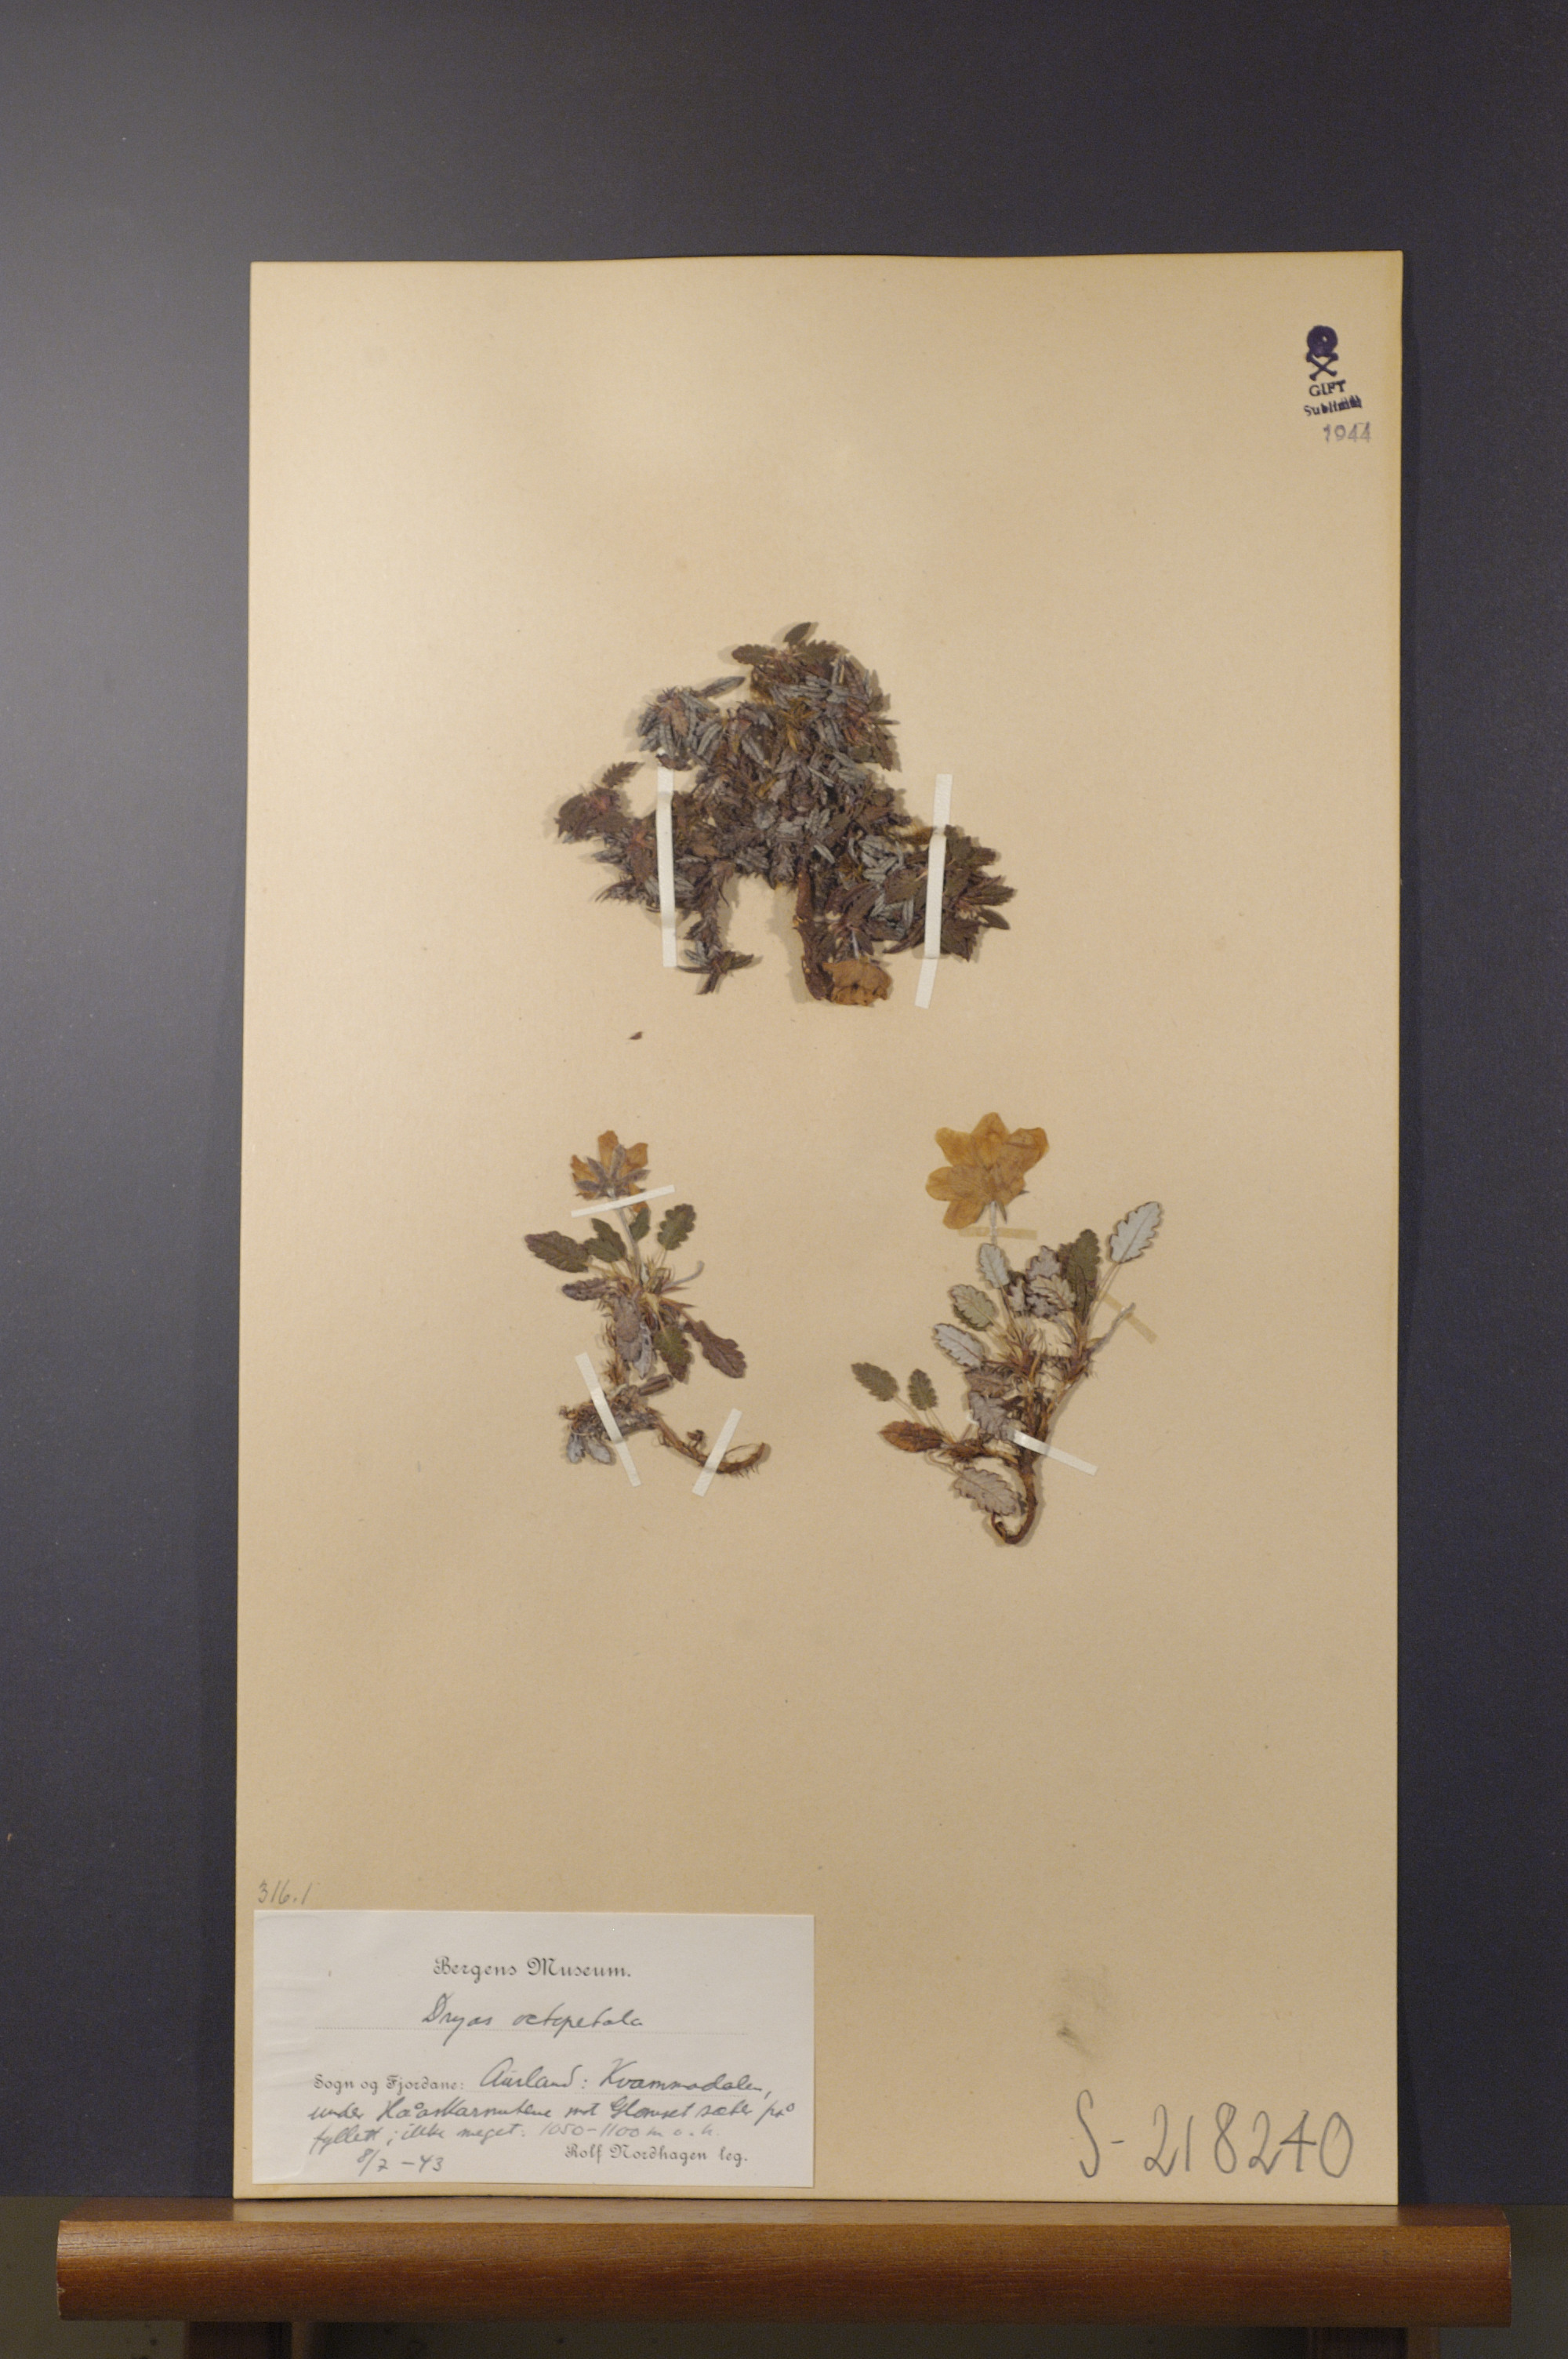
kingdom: Plantae
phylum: Tracheophyta
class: Magnoliopsida
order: Rosales
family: Rosaceae
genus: Dryas
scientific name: Dryas octopetala
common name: Eight-petal mountain-avens
